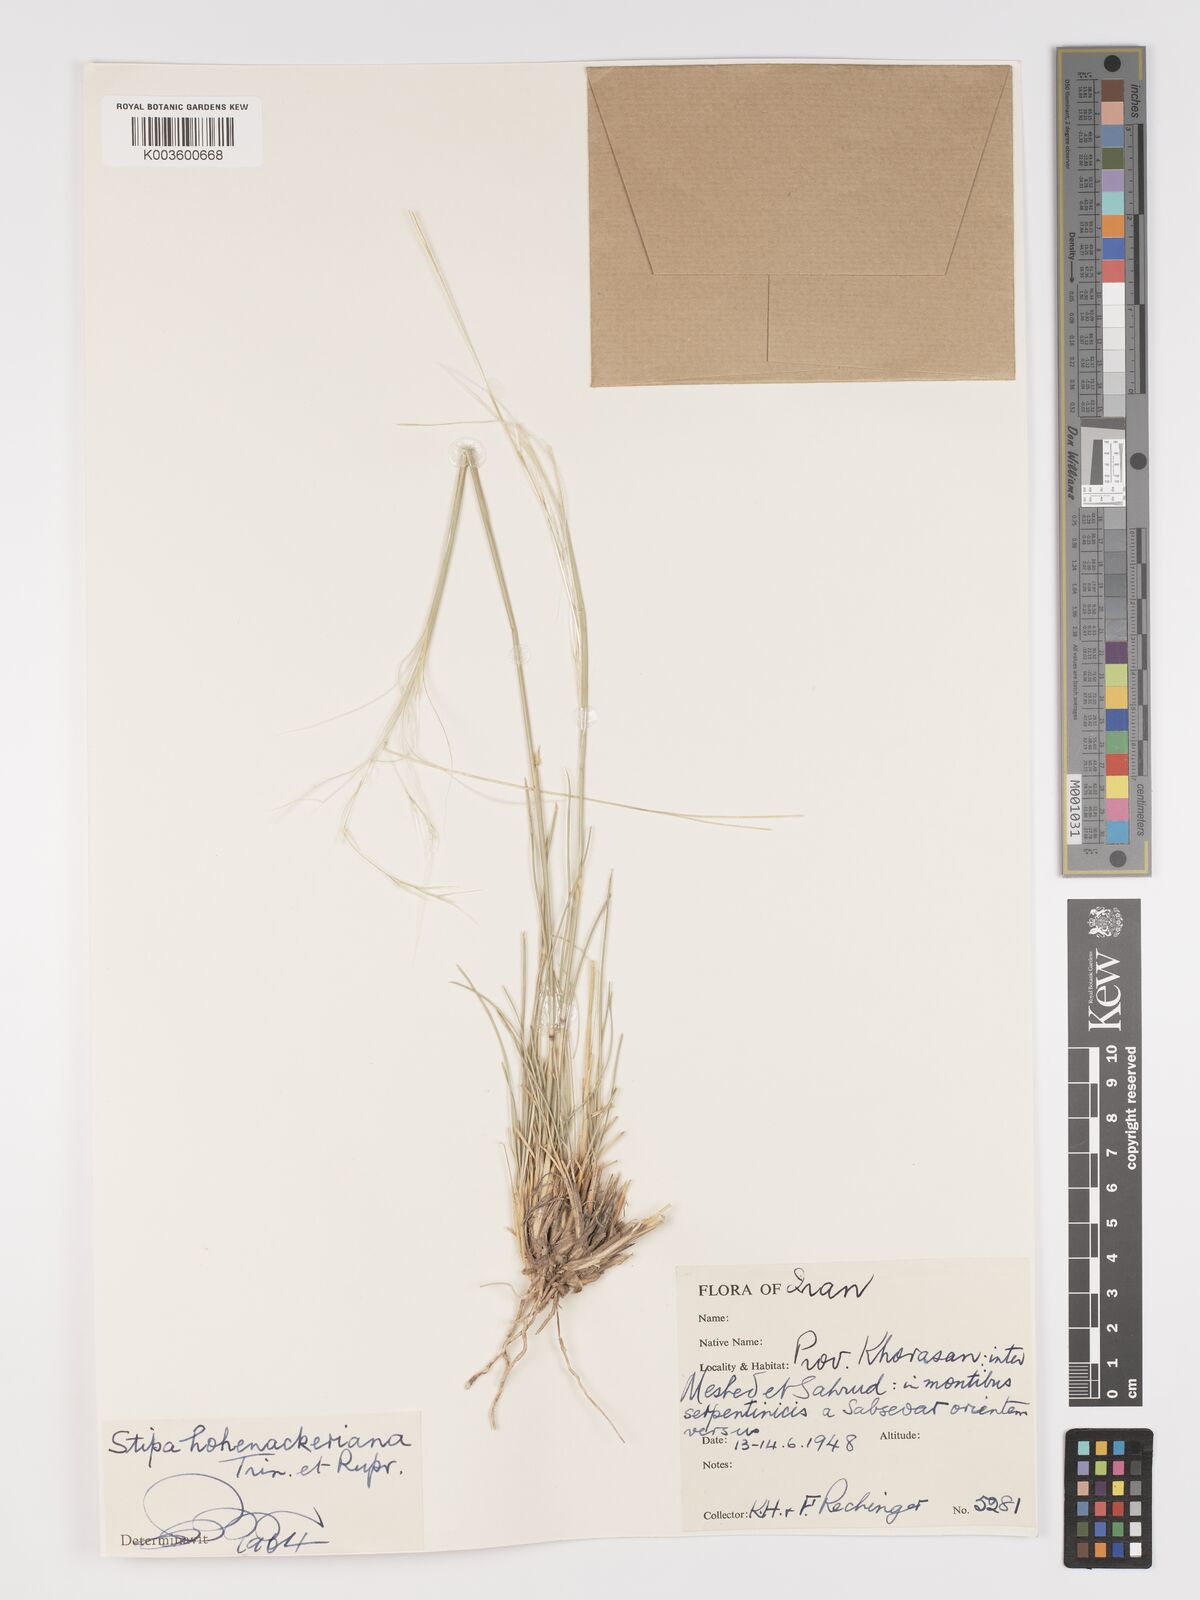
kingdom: Plantae
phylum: Tracheophyta
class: Liliopsida
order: Poales
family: Poaceae
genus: Stipa
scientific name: Stipa hohenackeriana
